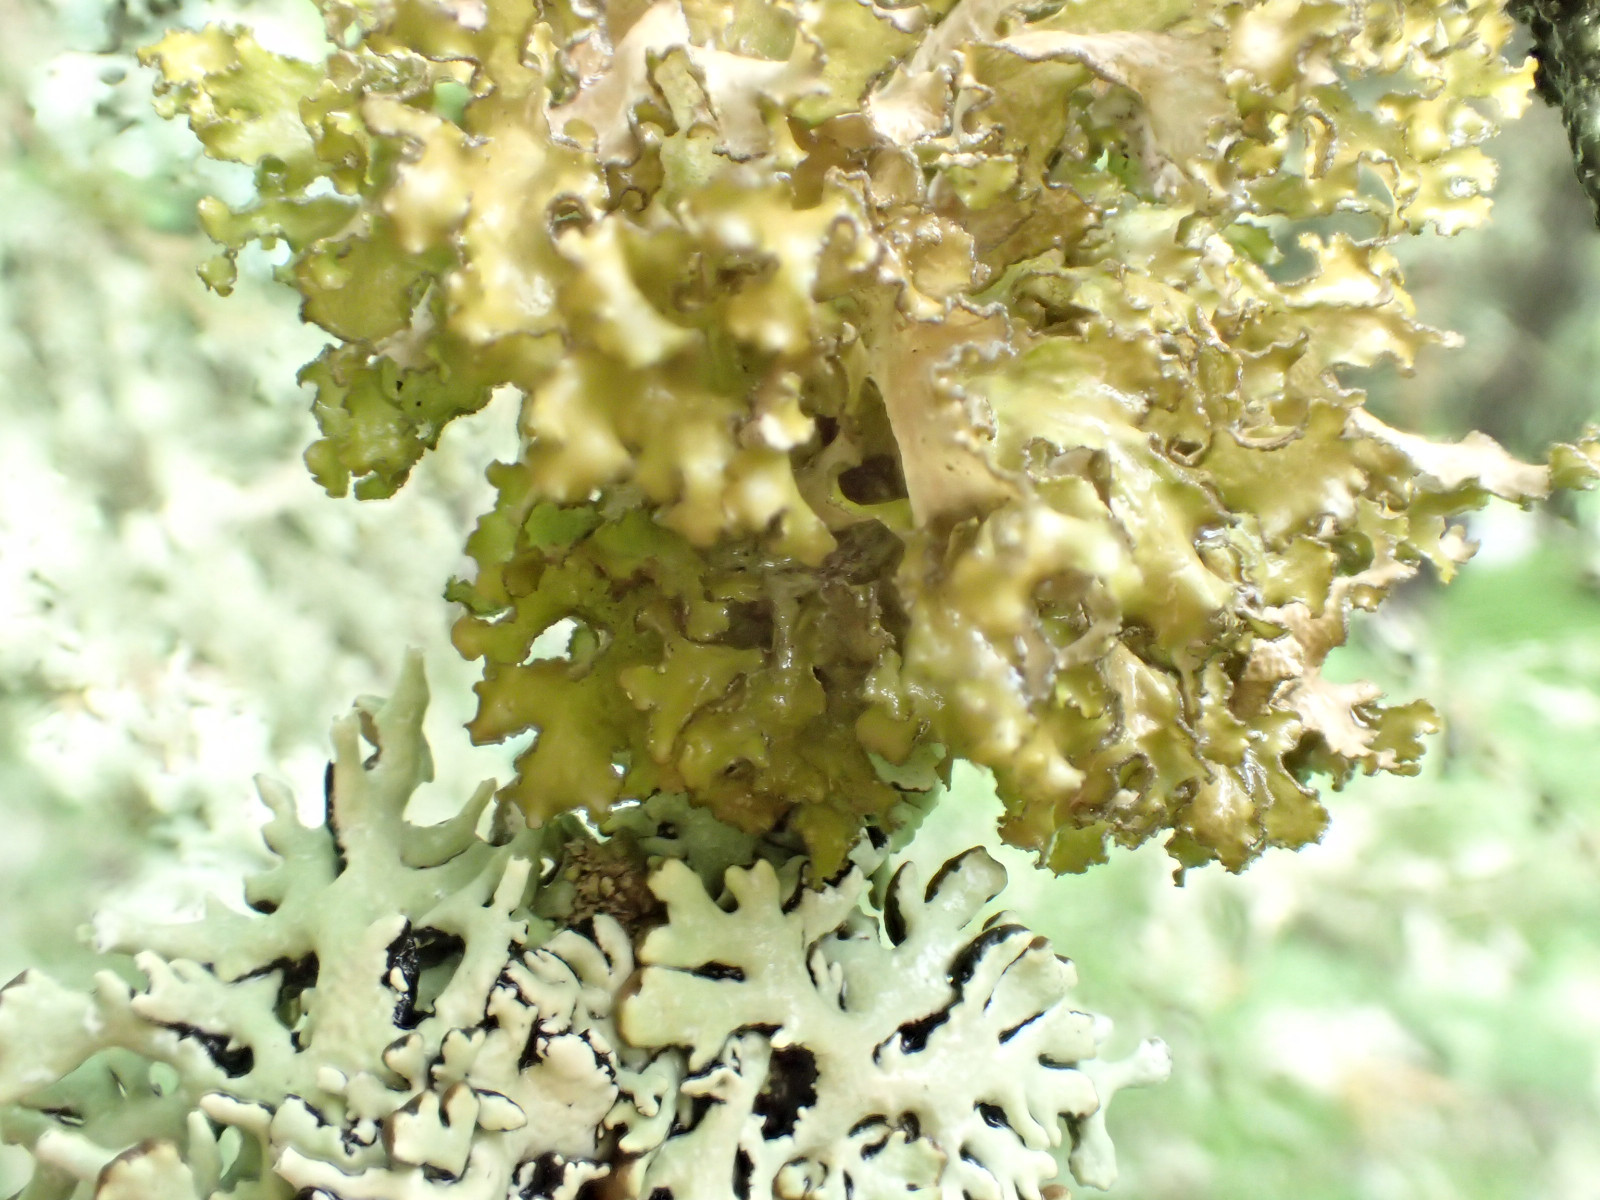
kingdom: Fungi
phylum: Ascomycota
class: Lecanoromycetes
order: Lecanorales
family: Parmeliaceae
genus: Nephromopsis
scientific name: Nephromopsis chlorophylla
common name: olivenbrun kruslav
